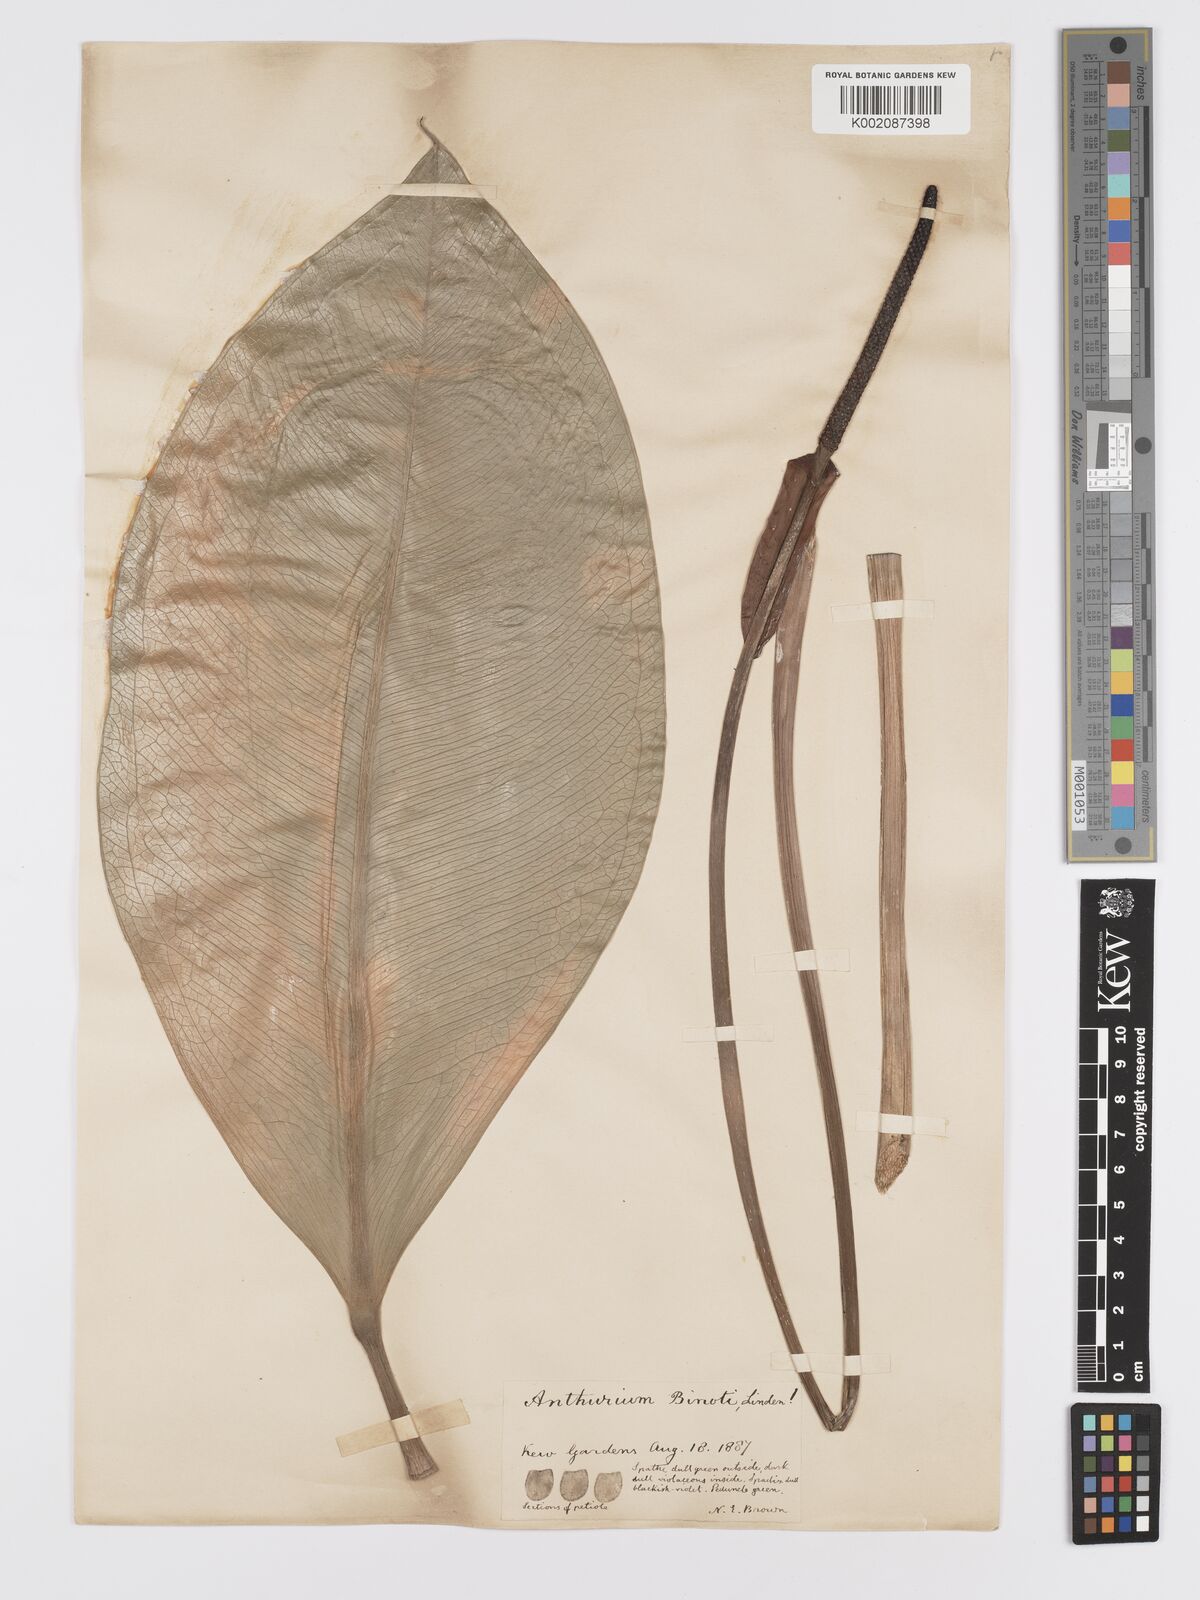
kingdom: Plantae
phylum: Tracheophyta
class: Liliopsida
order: Alismatales
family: Araceae
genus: Anthurium
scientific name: Anthurium binotii
